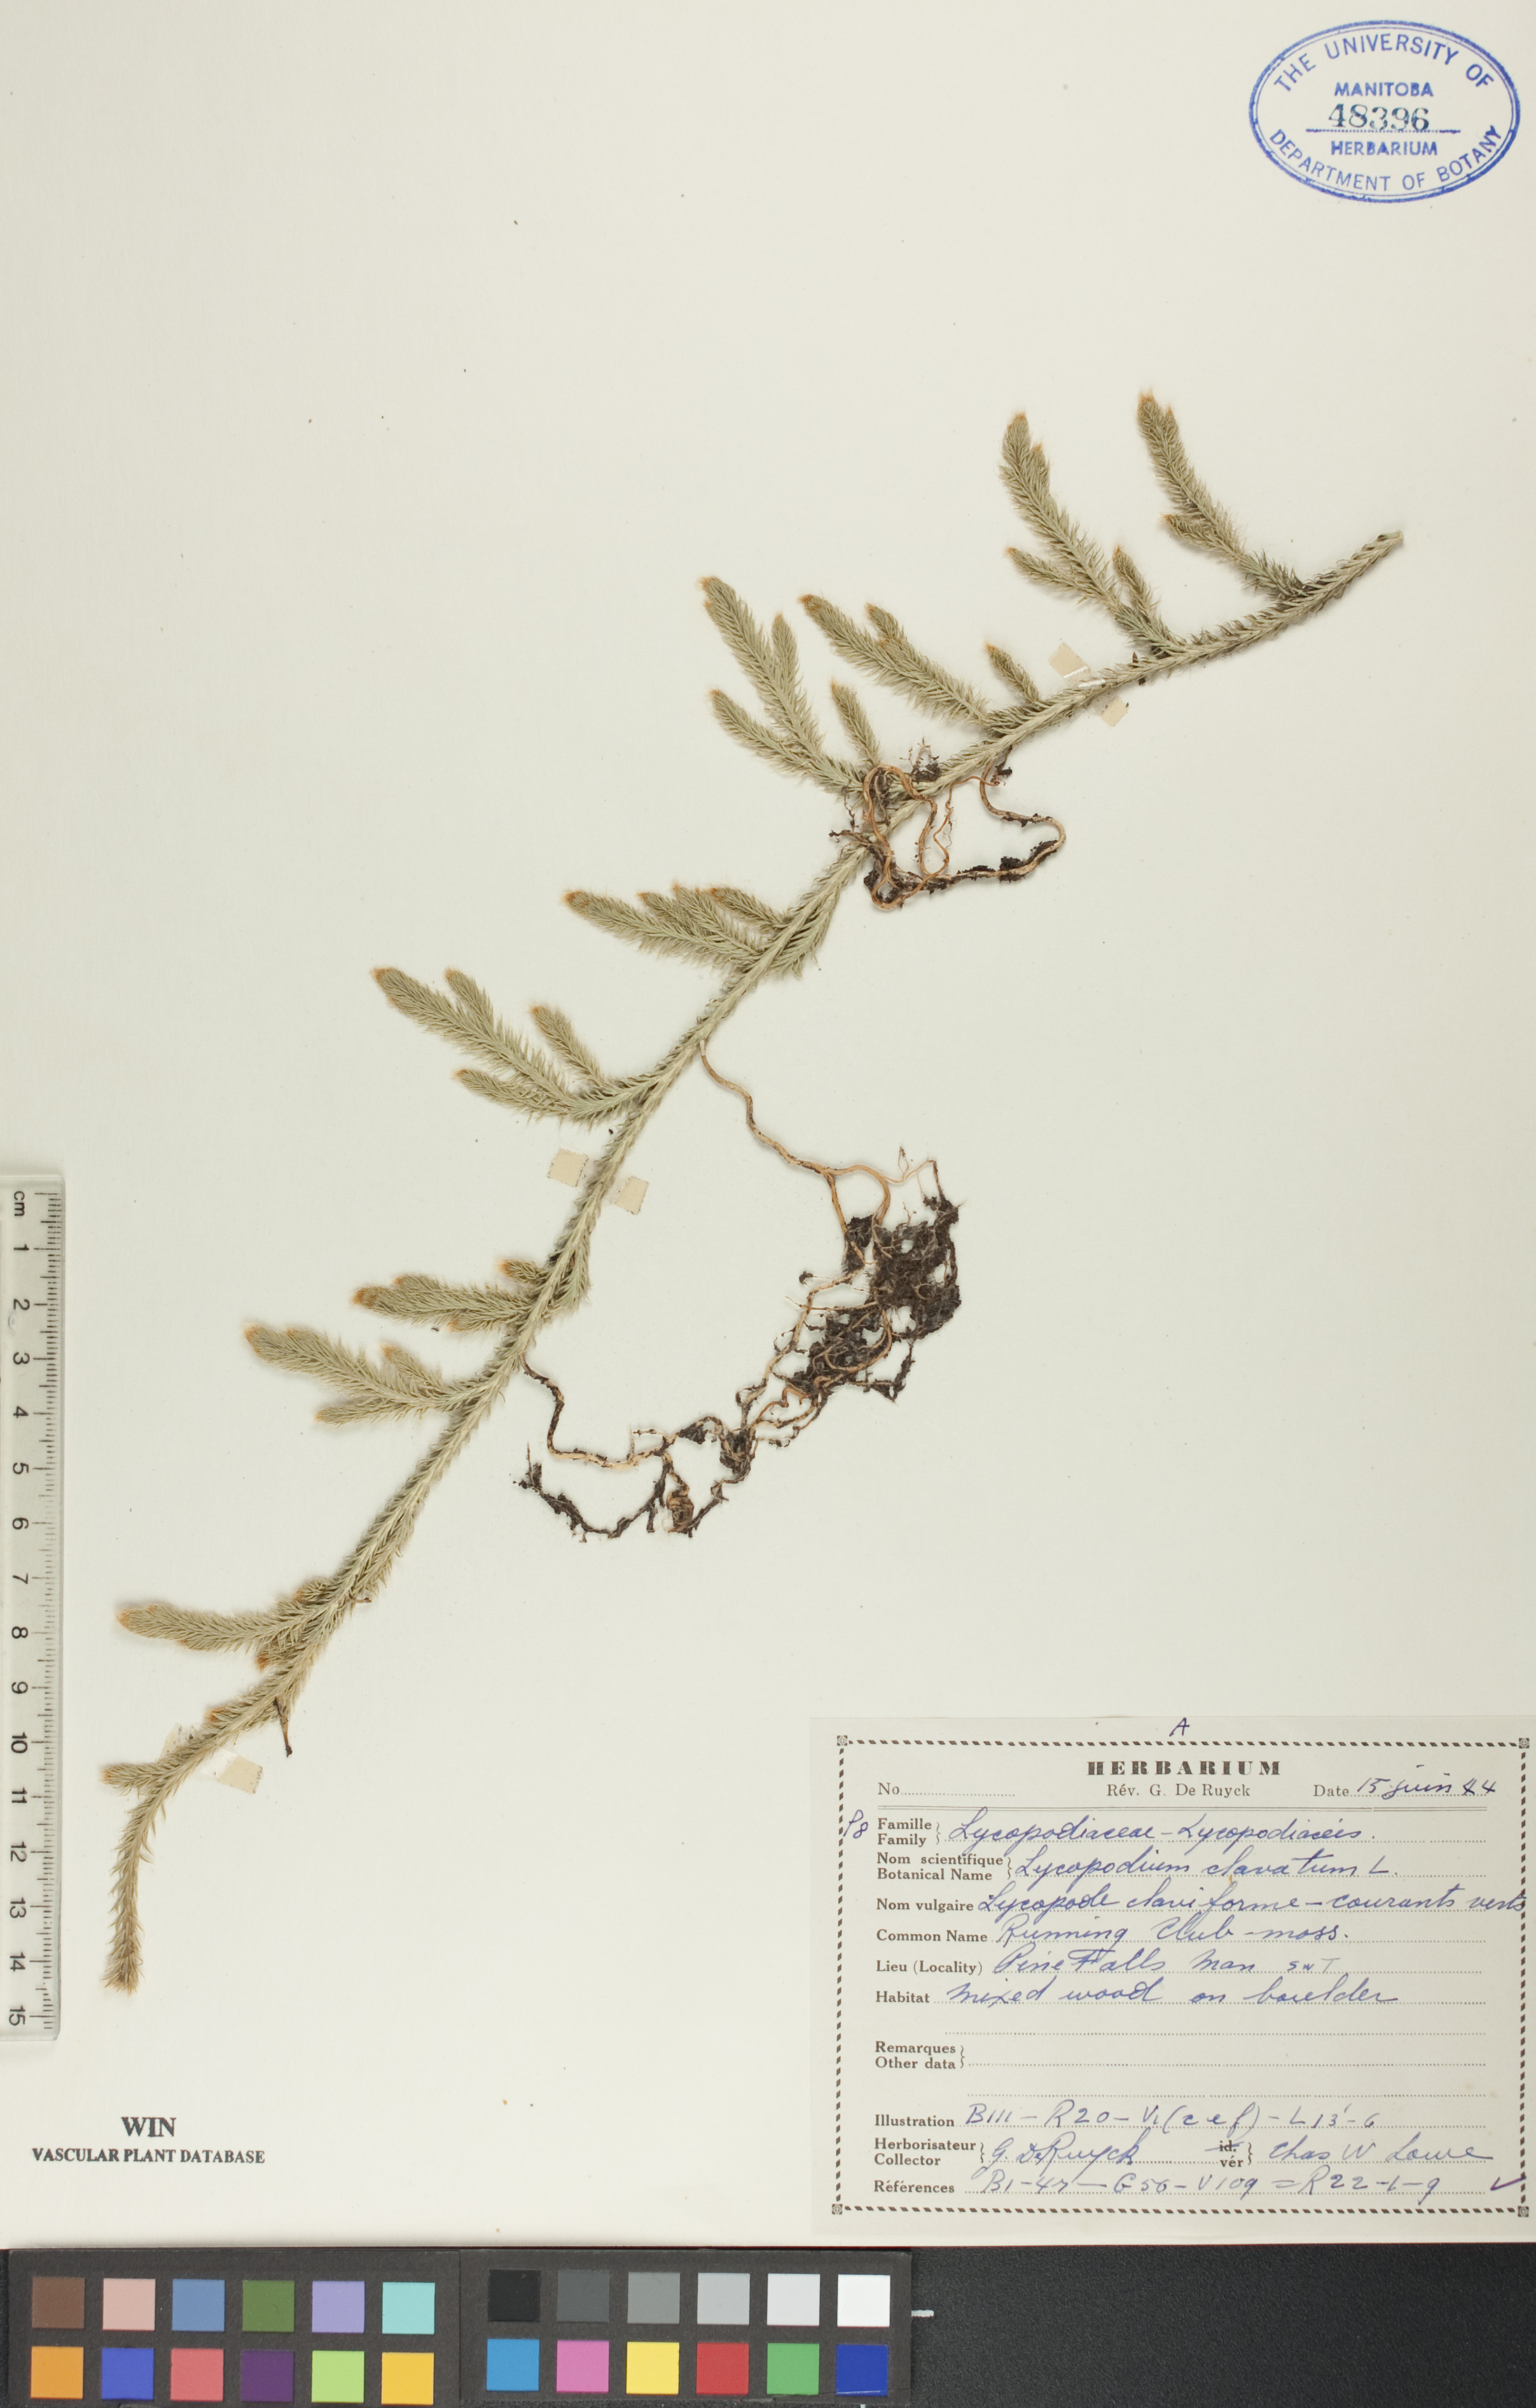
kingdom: Plantae
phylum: Tracheophyta
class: Lycopodiopsida
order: Lycopodiales
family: Lycopodiaceae
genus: Lycopodium
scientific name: Lycopodium clavatum
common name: Stag's-horn clubmoss
